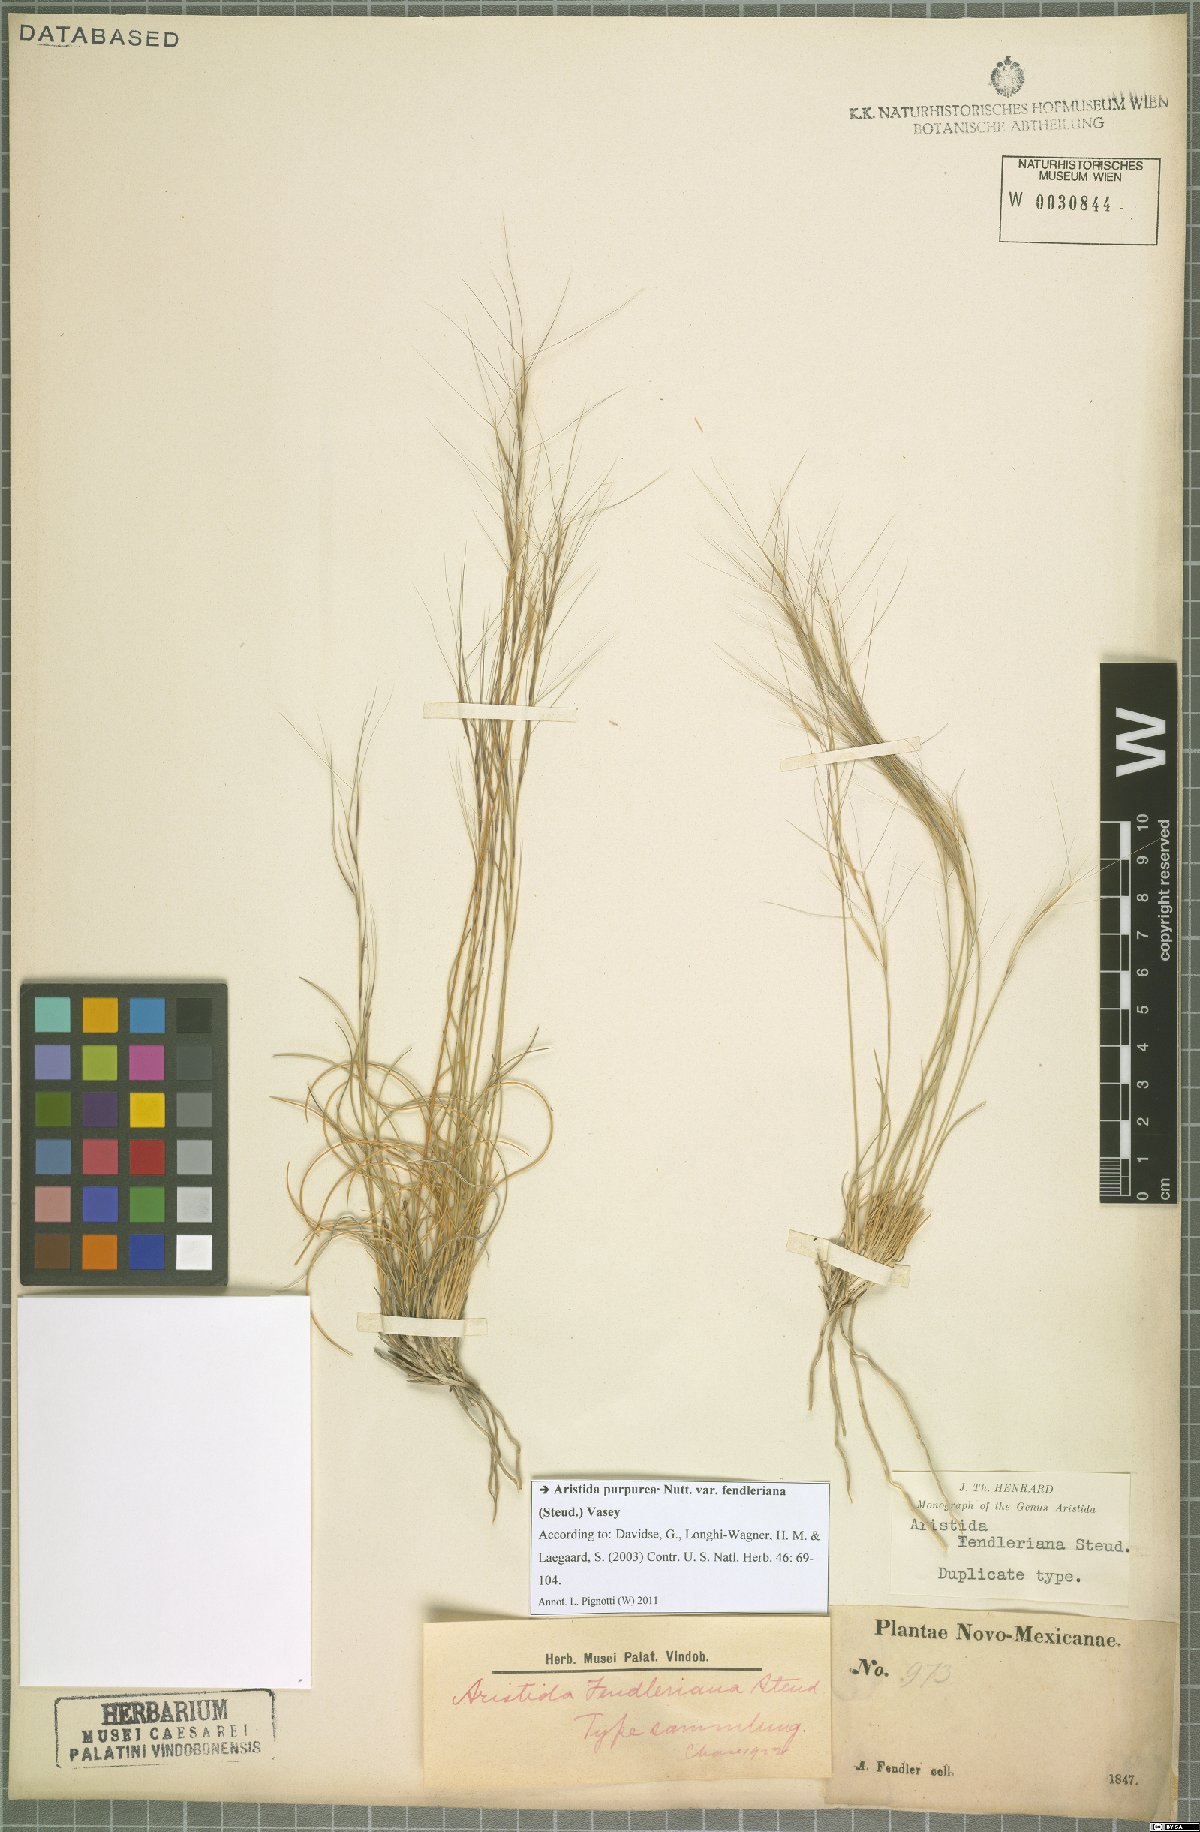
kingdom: Plantae
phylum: Tracheophyta
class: Liliopsida
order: Poales
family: Poaceae
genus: Aristida
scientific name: Aristida fendleriana
